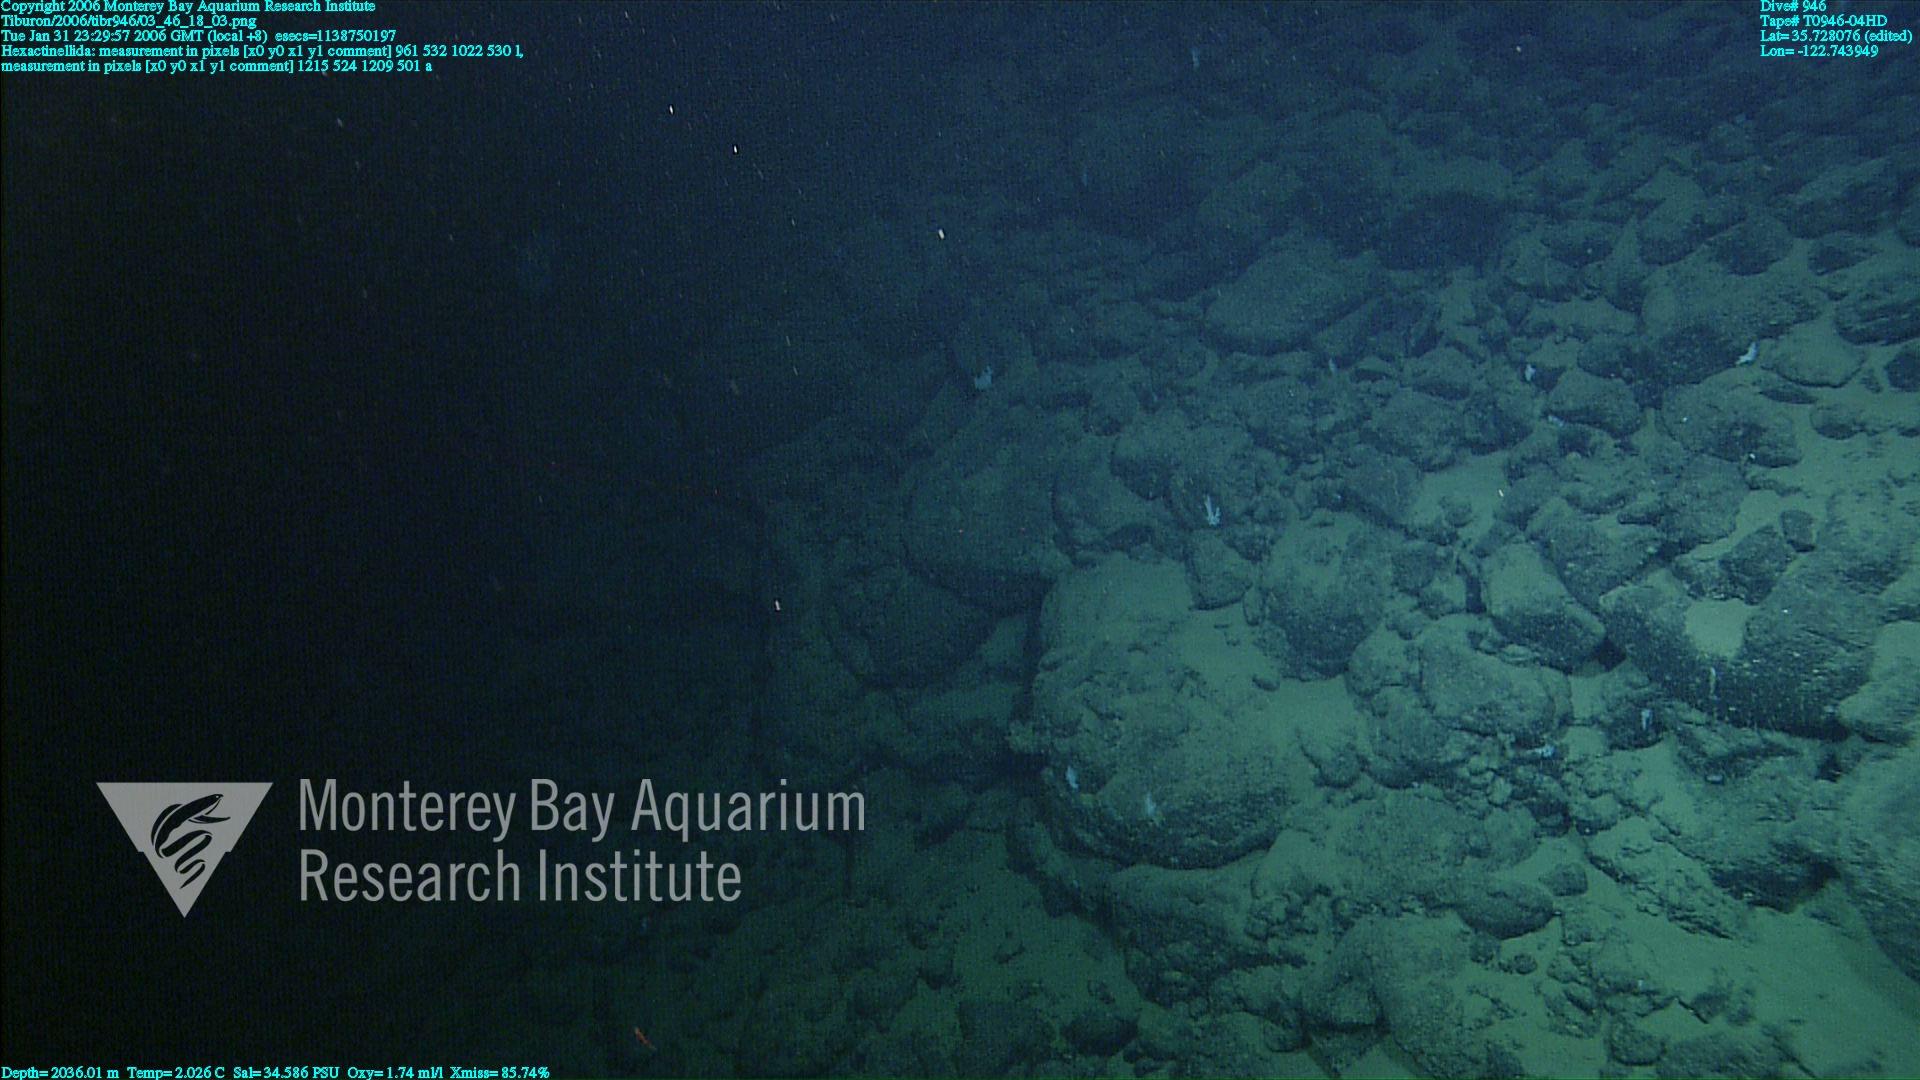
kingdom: Animalia
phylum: Porifera
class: Hexactinellida
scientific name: Hexactinellida
